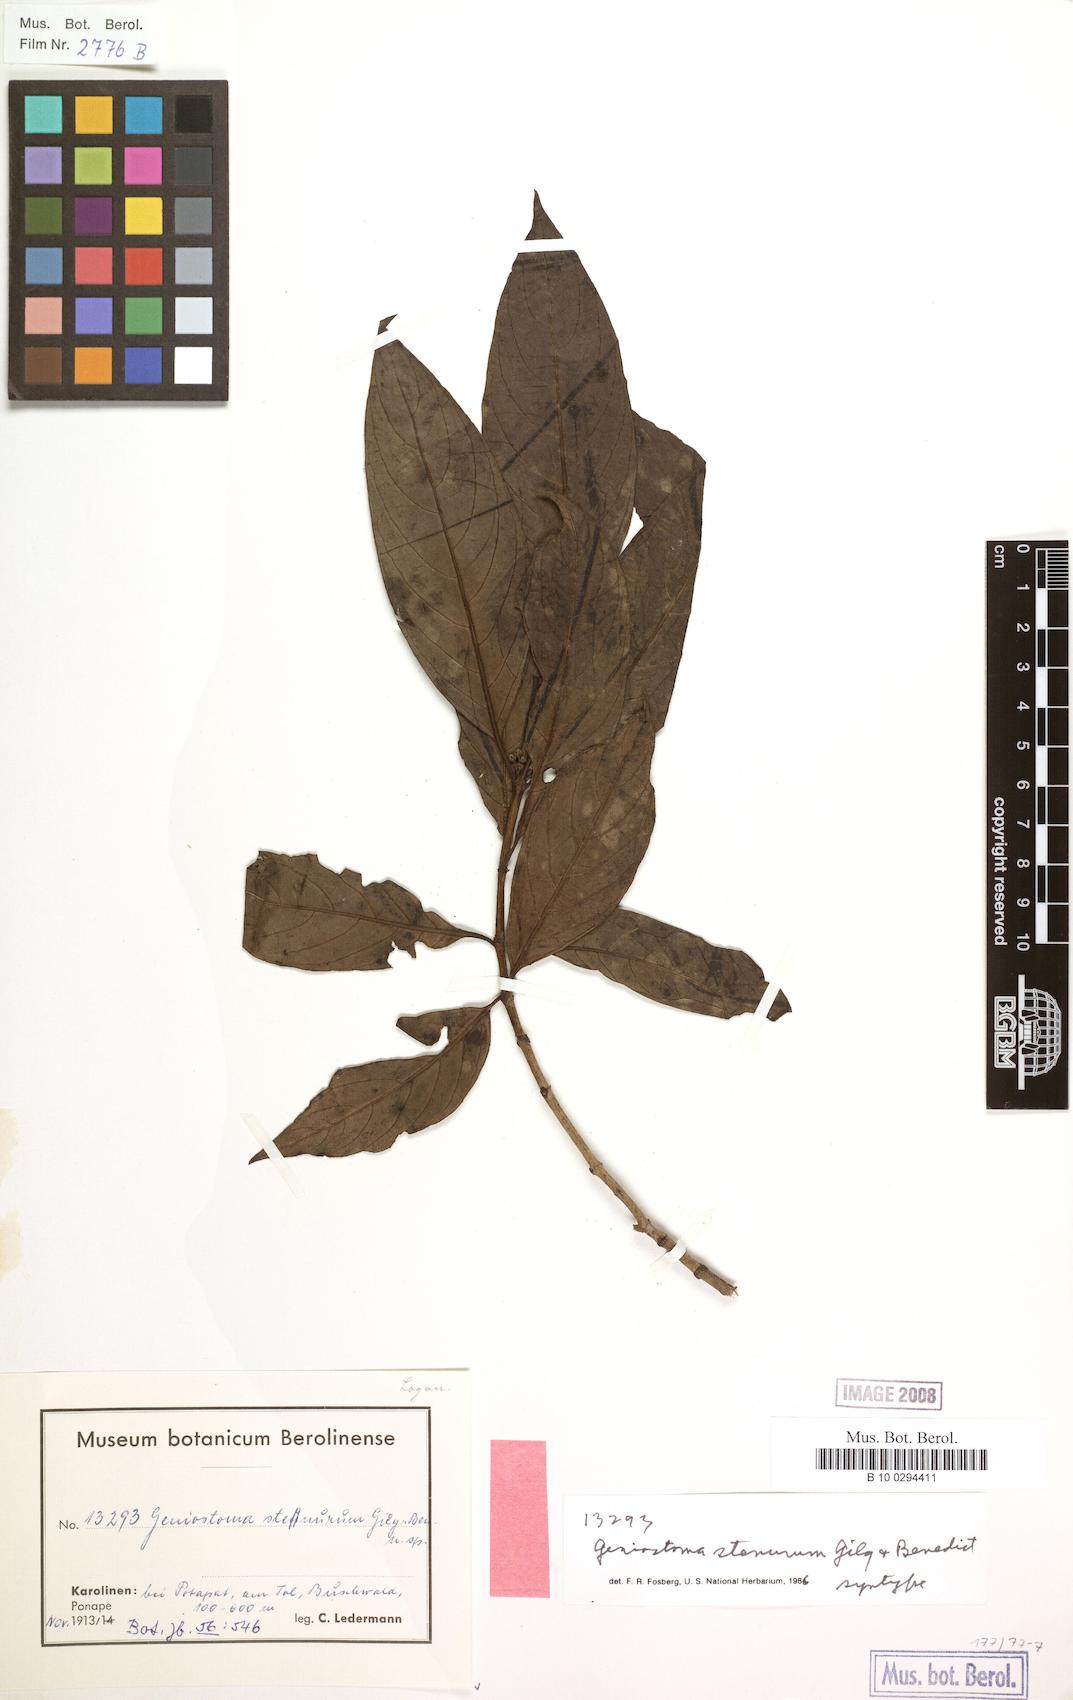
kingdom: Plantae
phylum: Tracheophyta
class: Magnoliopsida
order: Gentianales
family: Loganiaceae
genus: Geniostoma
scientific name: Geniostoma rupestre
